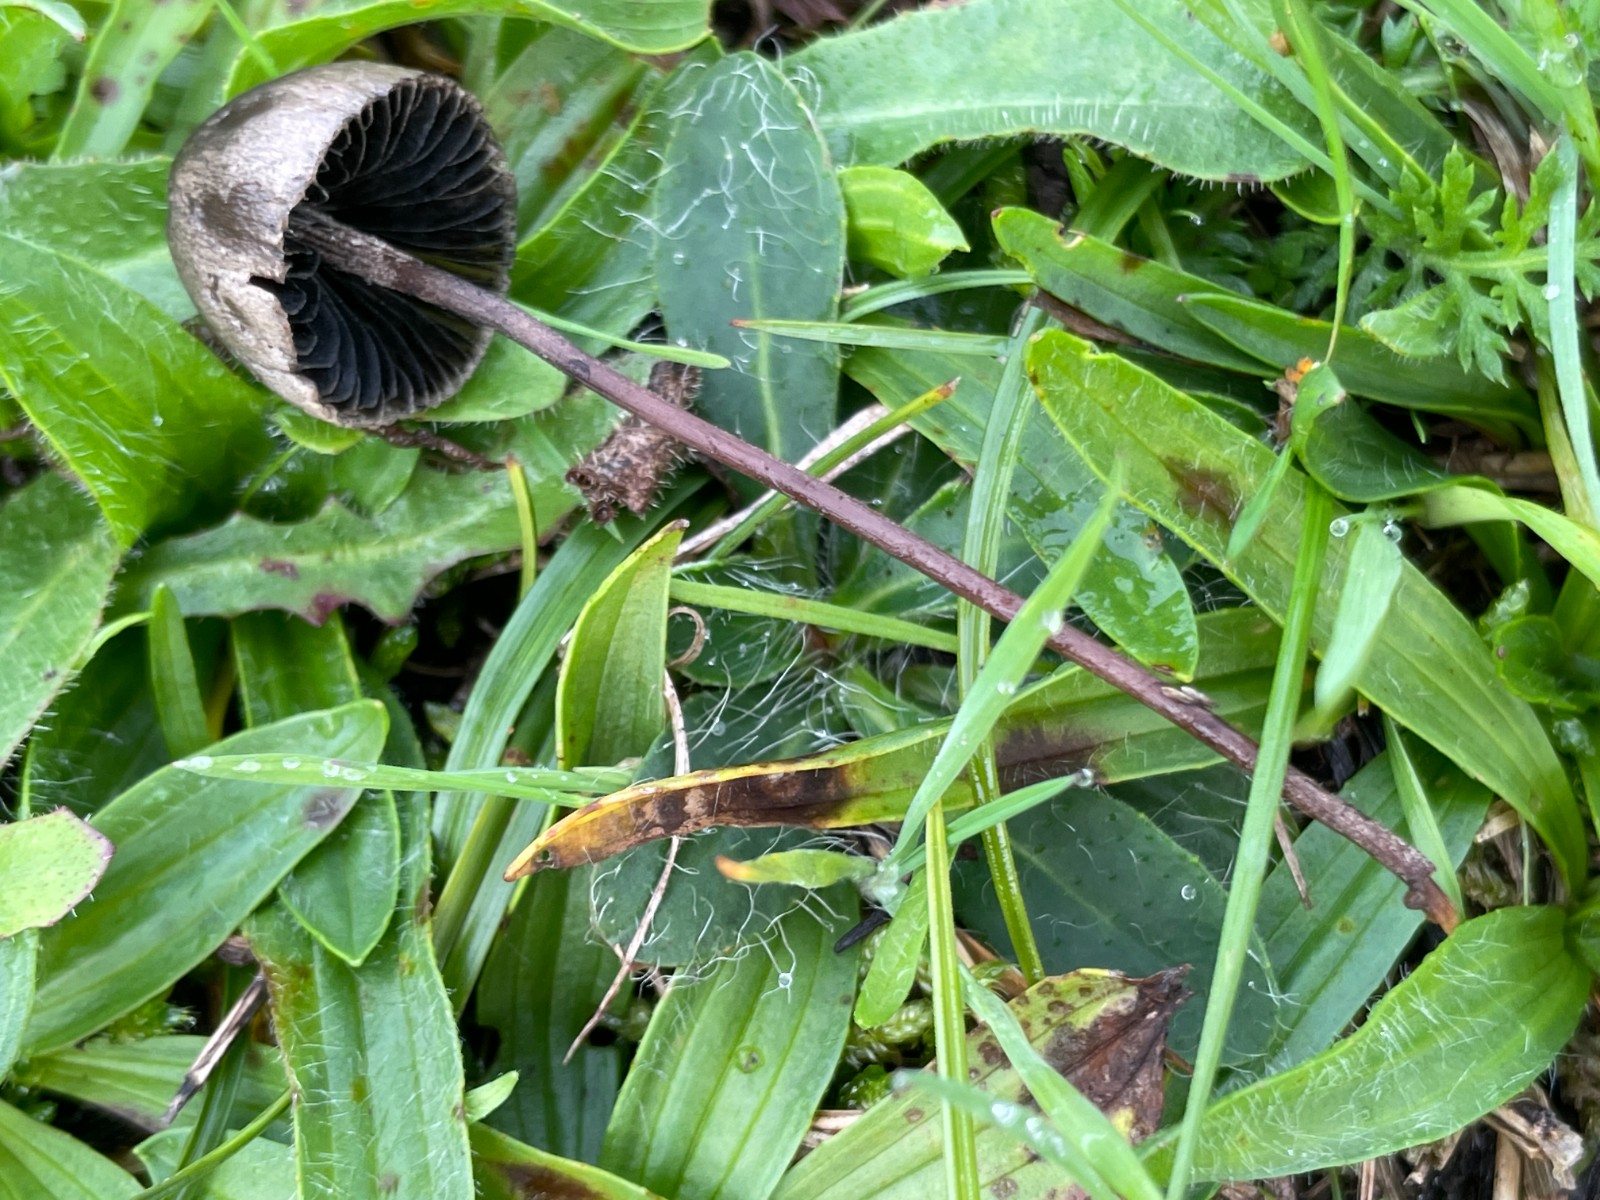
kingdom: Fungi
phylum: Basidiomycota
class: Agaricomycetes
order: Agaricales
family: Bolbitiaceae
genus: Panaeolus
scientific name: Panaeolus acuminatus
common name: høj glanshat
